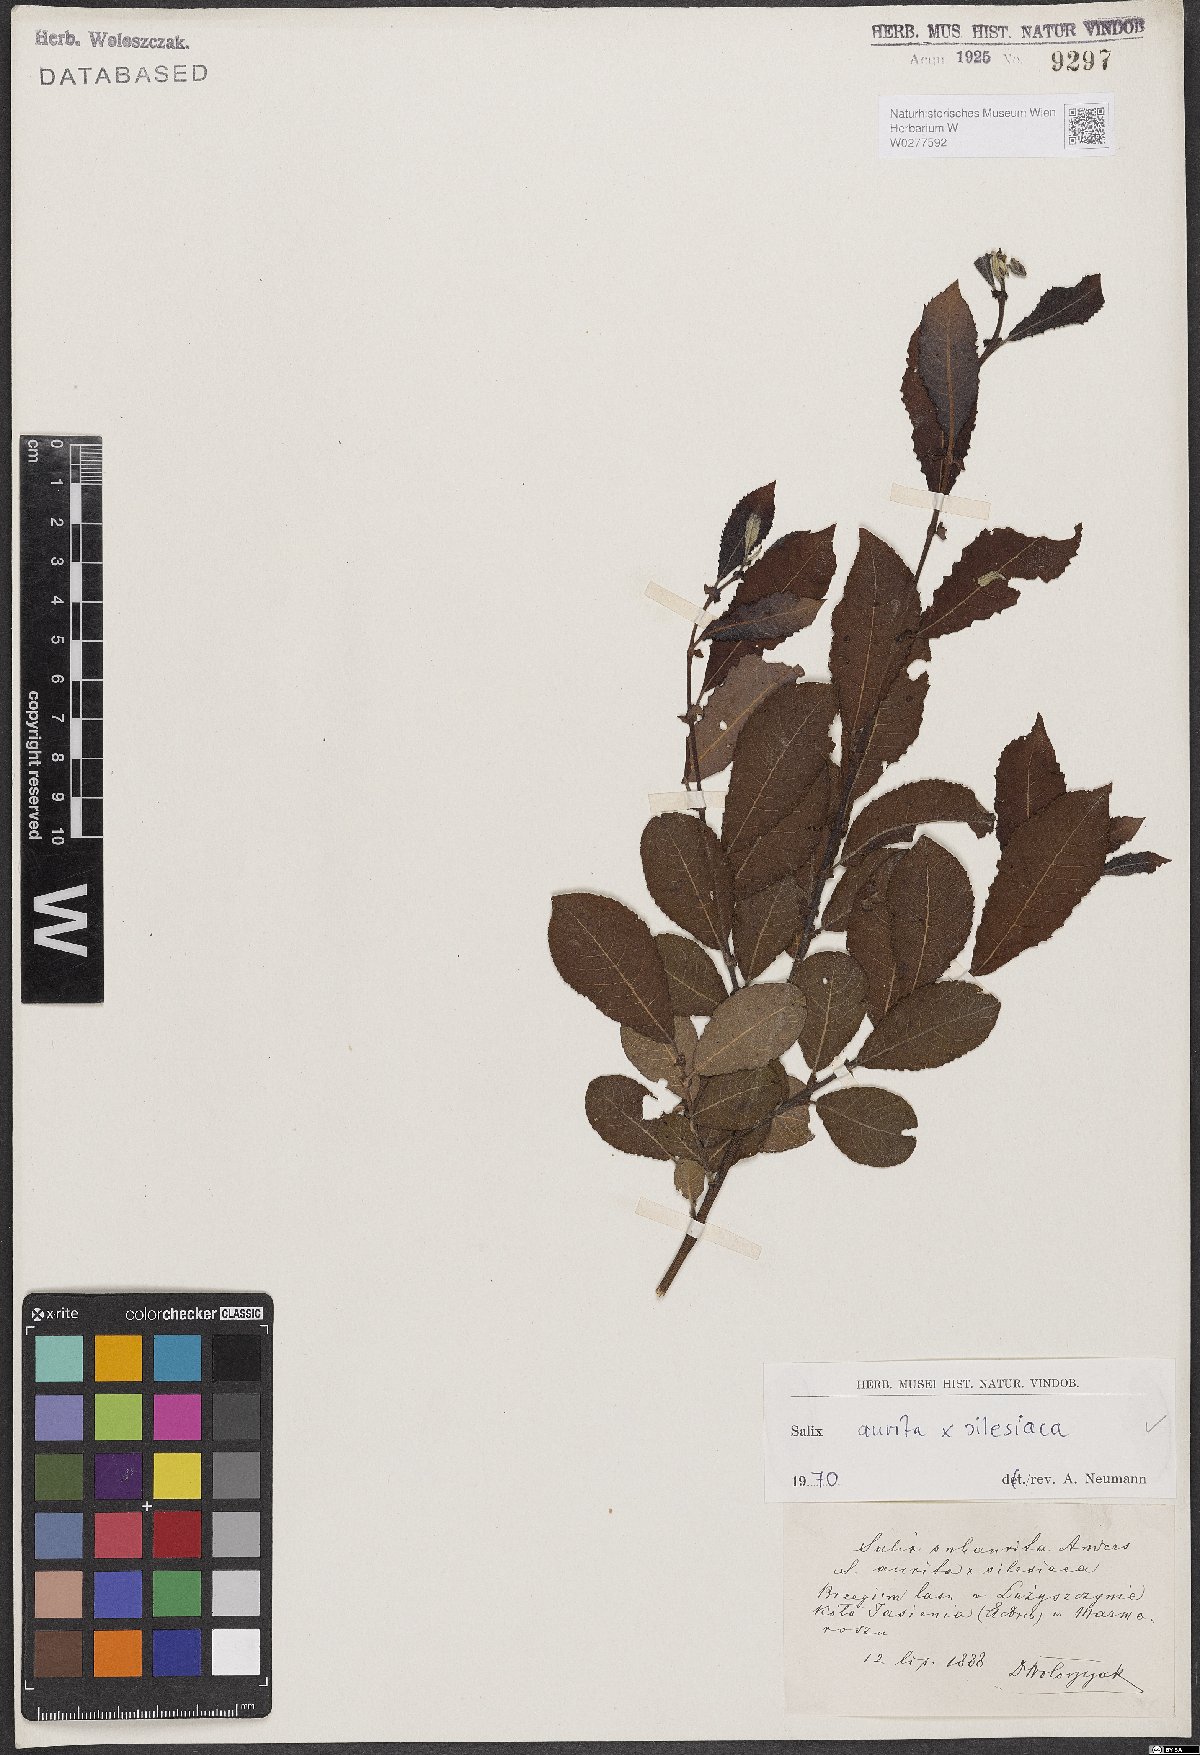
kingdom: Plantae
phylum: Tracheophyta
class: Magnoliopsida
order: Malpighiales
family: Salicaceae
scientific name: Salicaceae
